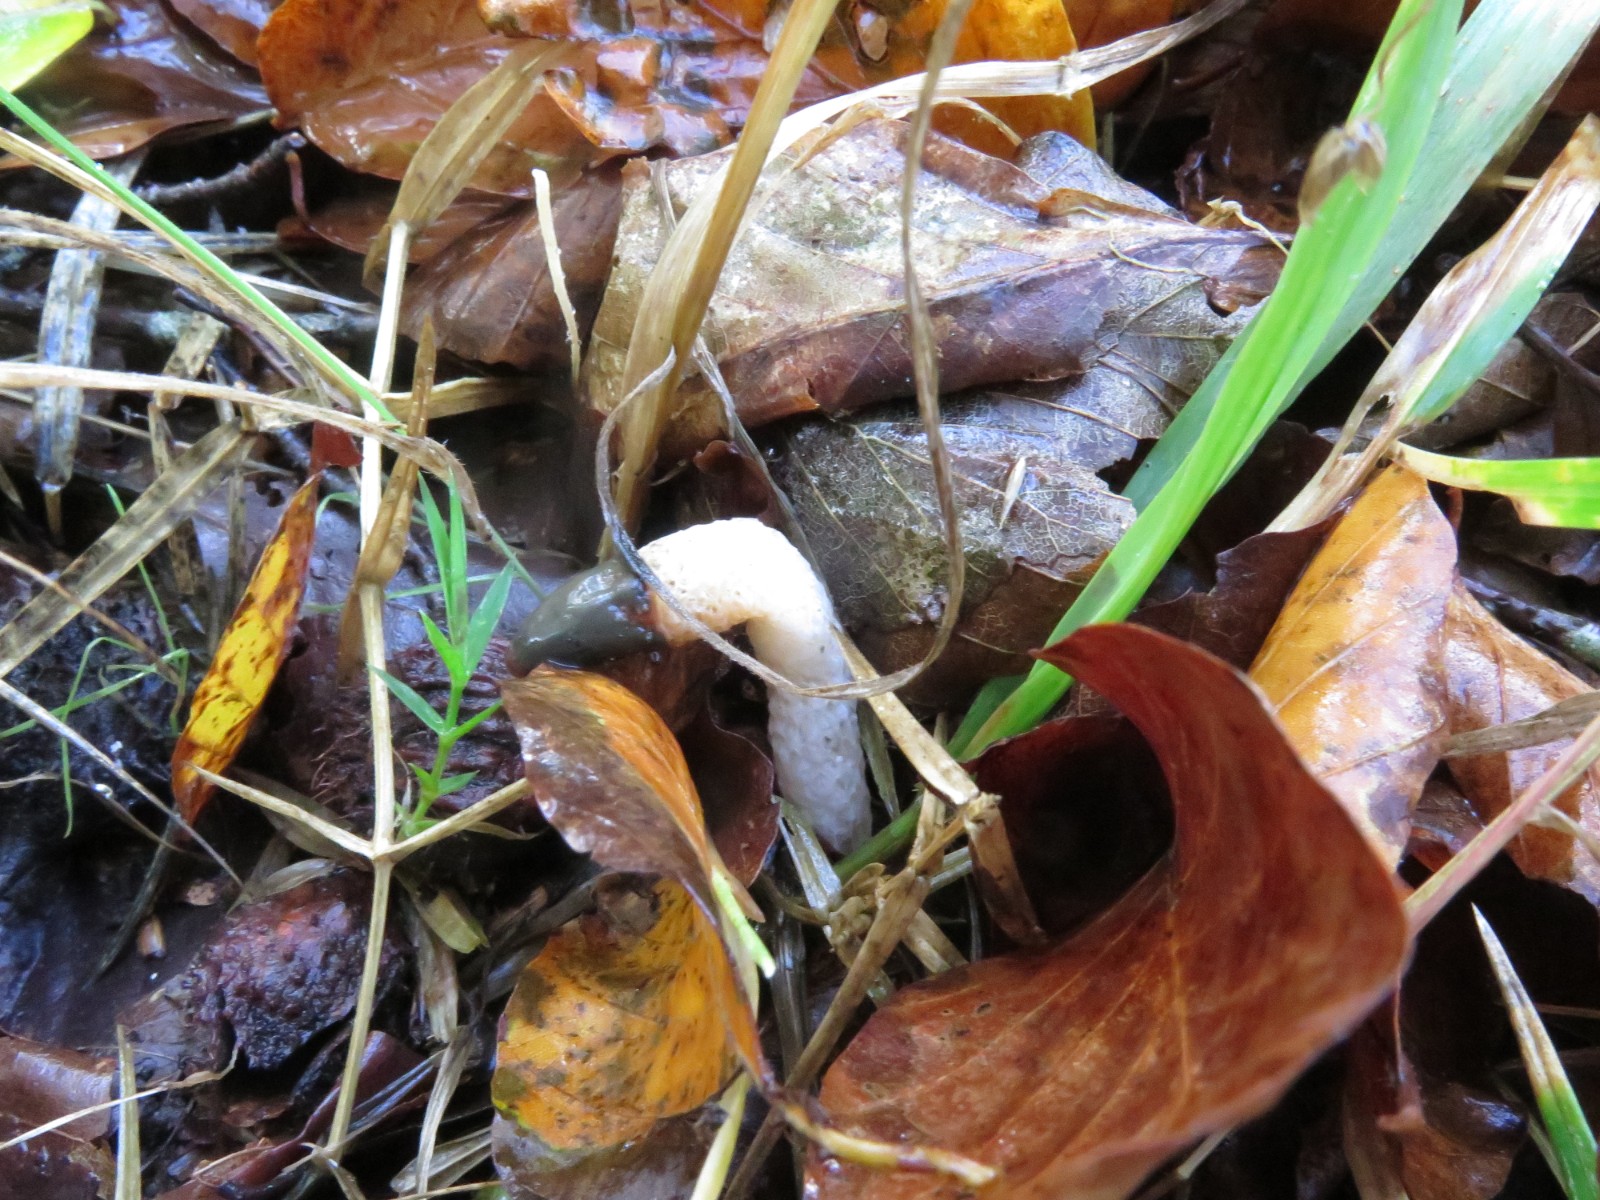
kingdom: Fungi
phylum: Basidiomycota
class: Agaricomycetes
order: Phallales
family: Phallaceae
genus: Mutinus
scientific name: Mutinus caninus
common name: hunde-stinksvamp
